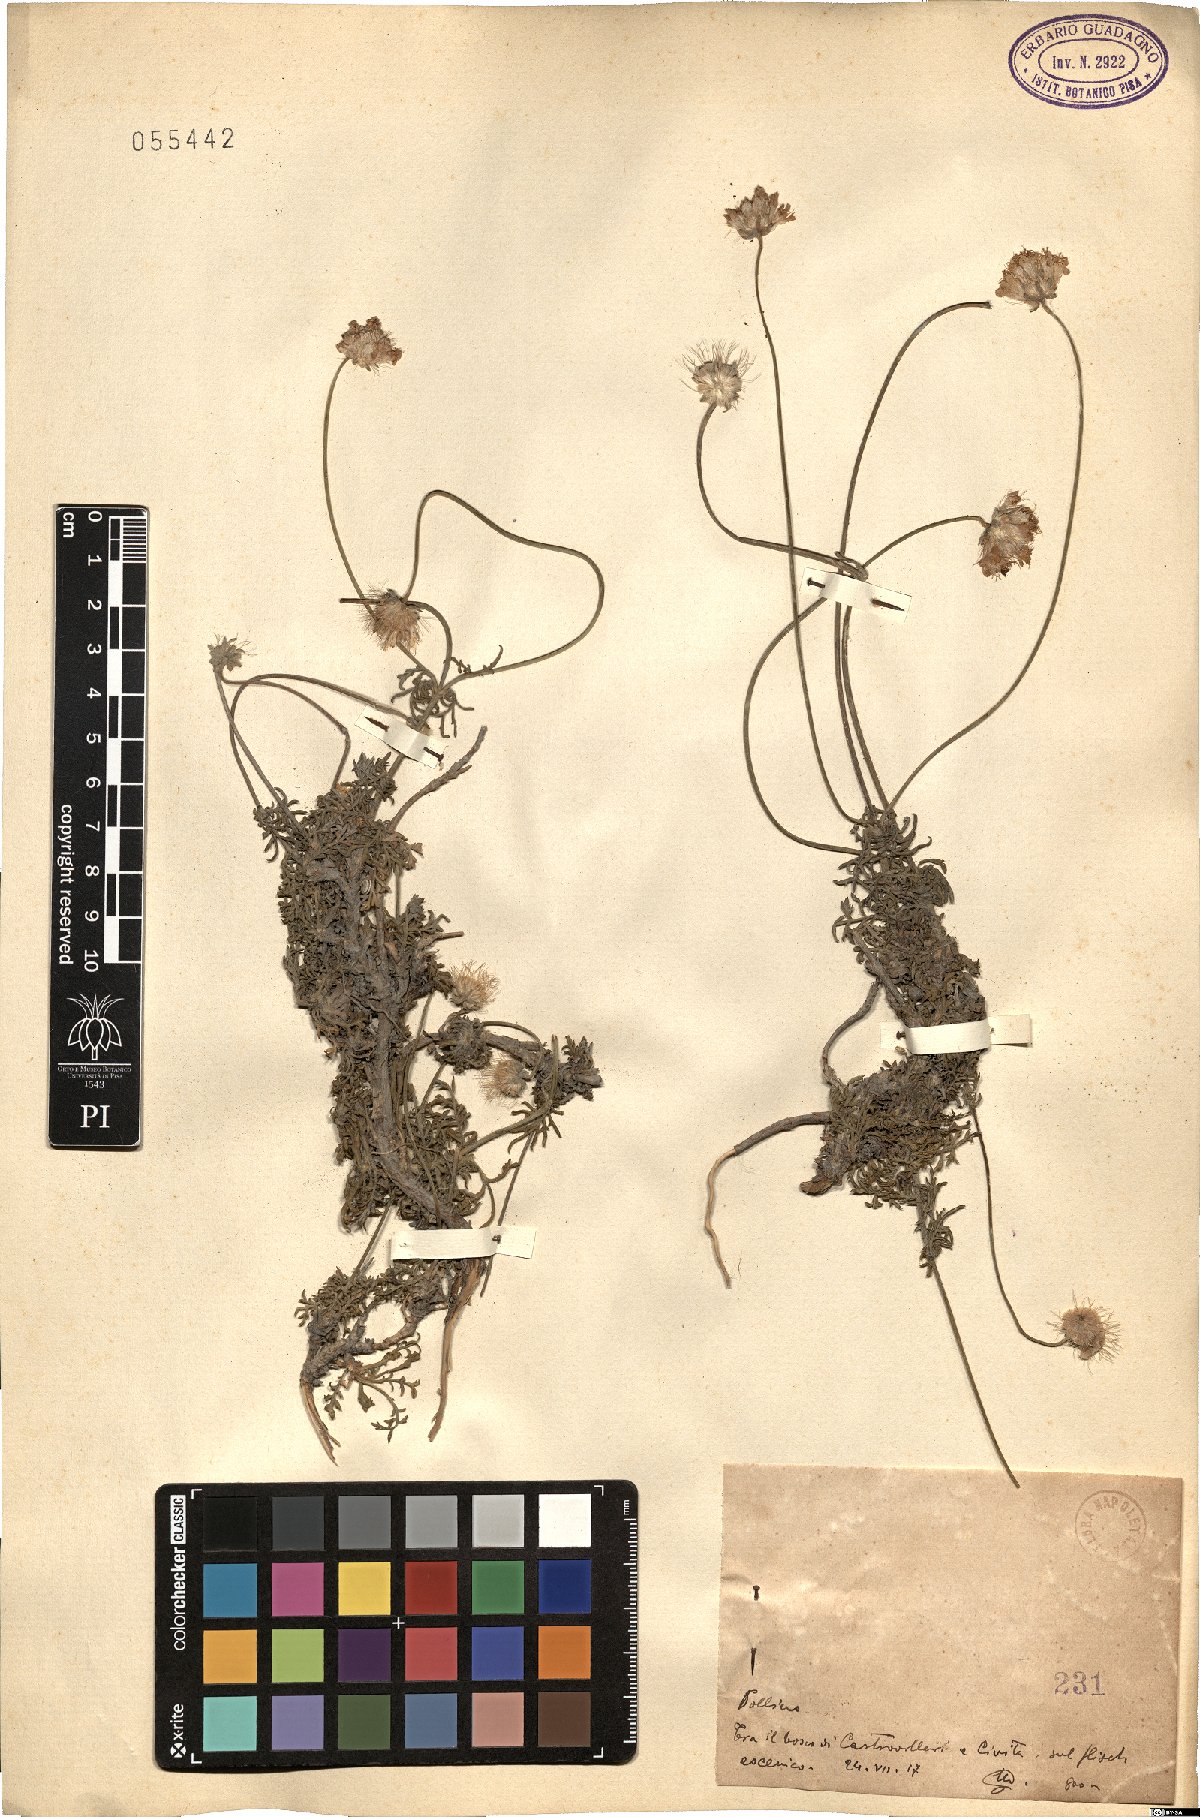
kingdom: Plantae
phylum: Tracheophyta
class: Magnoliopsida
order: Dipsacales
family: Caprifoliaceae
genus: Scabiosa
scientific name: Scabiosa
